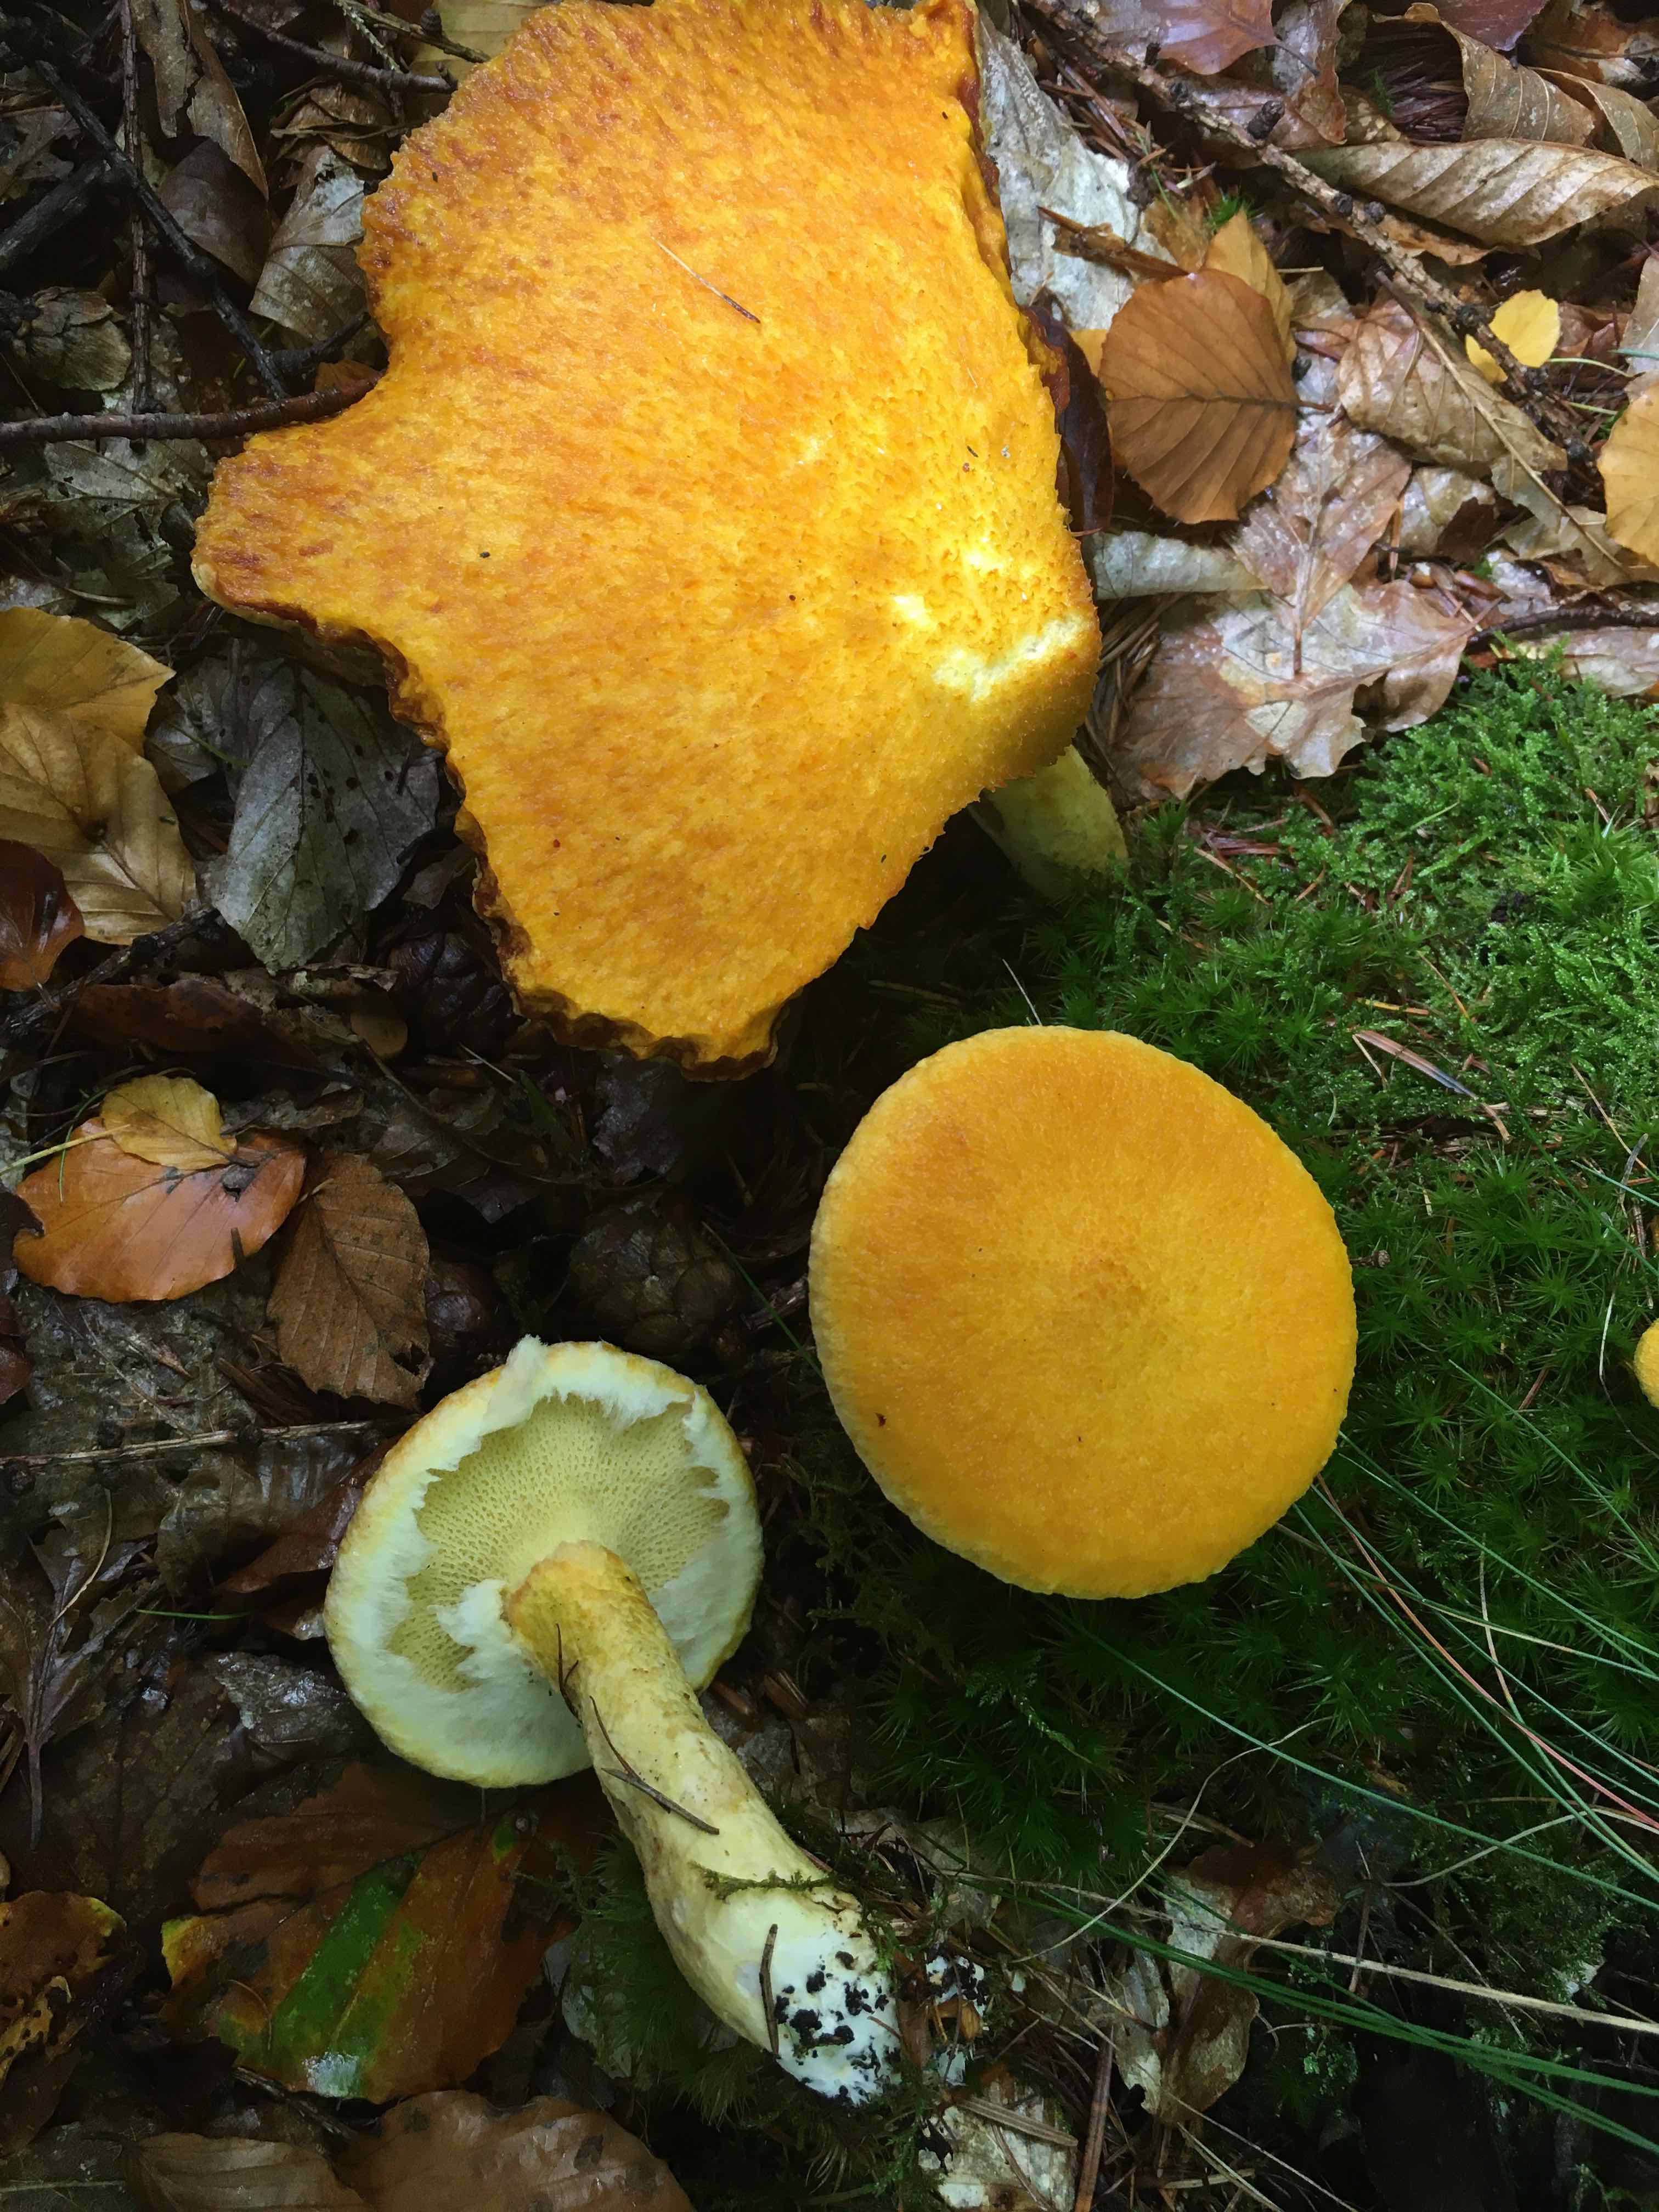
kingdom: Fungi
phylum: Basidiomycota
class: Agaricomycetes
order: Boletales
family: Suillaceae
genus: Suillus
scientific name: Suillus cavipes
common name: hulstokket slimrørhat
